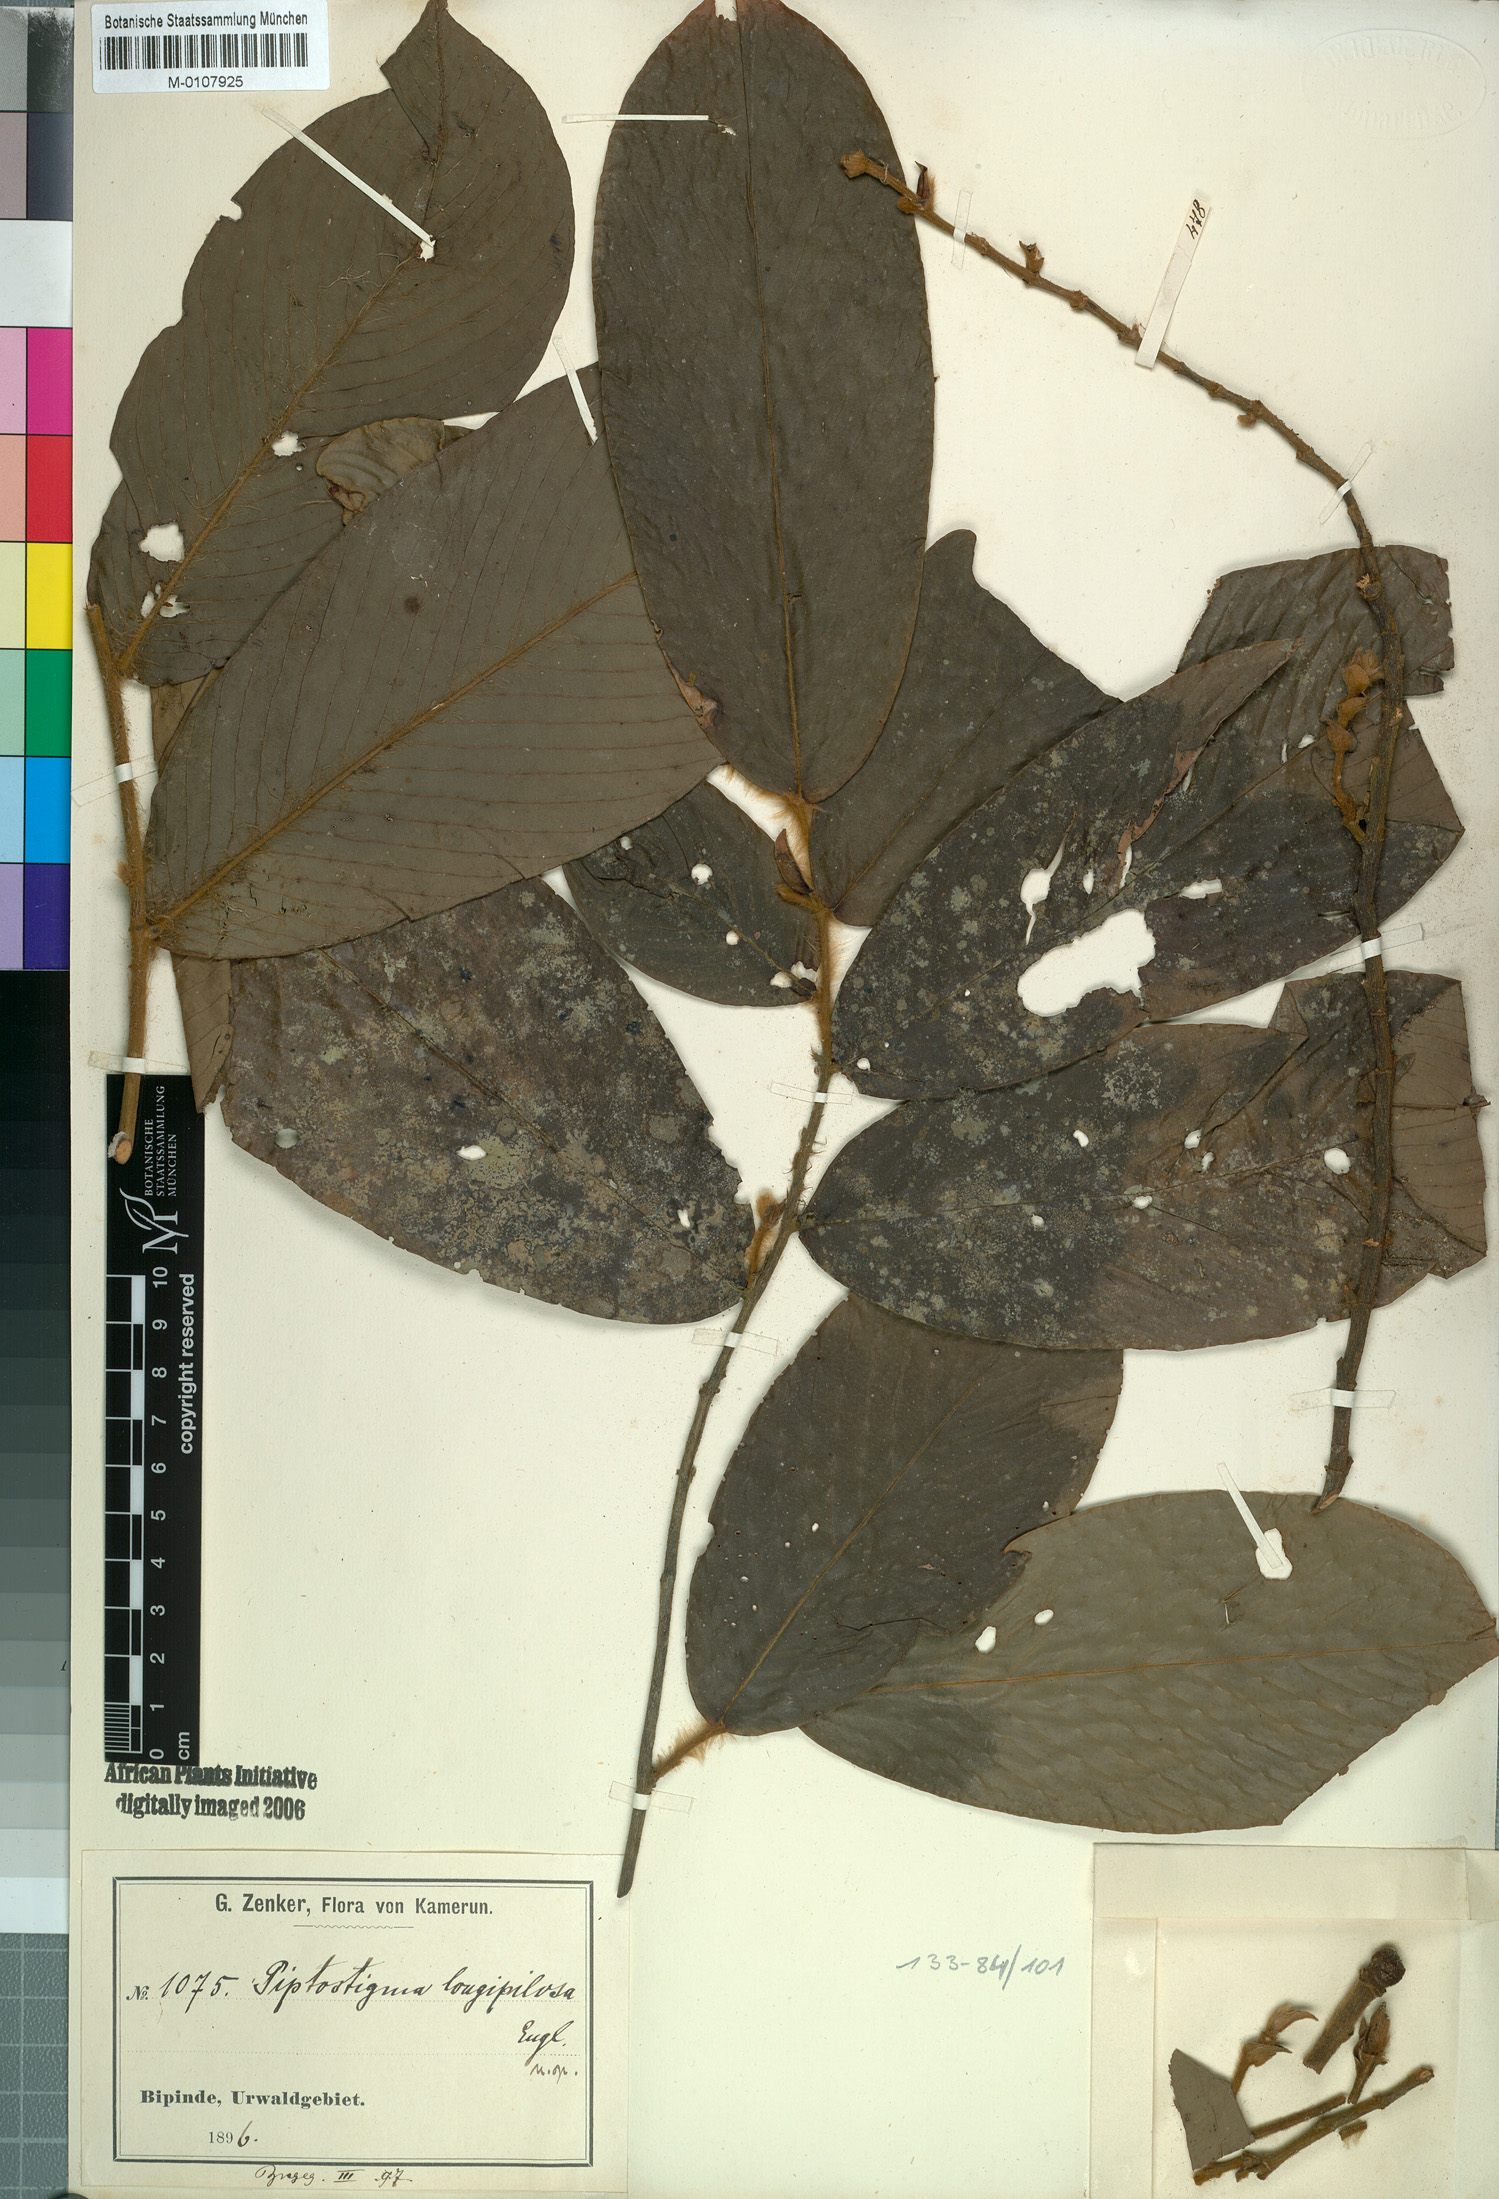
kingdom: Plantae
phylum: Tracheophyta
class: Magnoliopsida
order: Magnoliales
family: Annonaceae
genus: Piptostigma
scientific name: Piptostigma longepilosum
